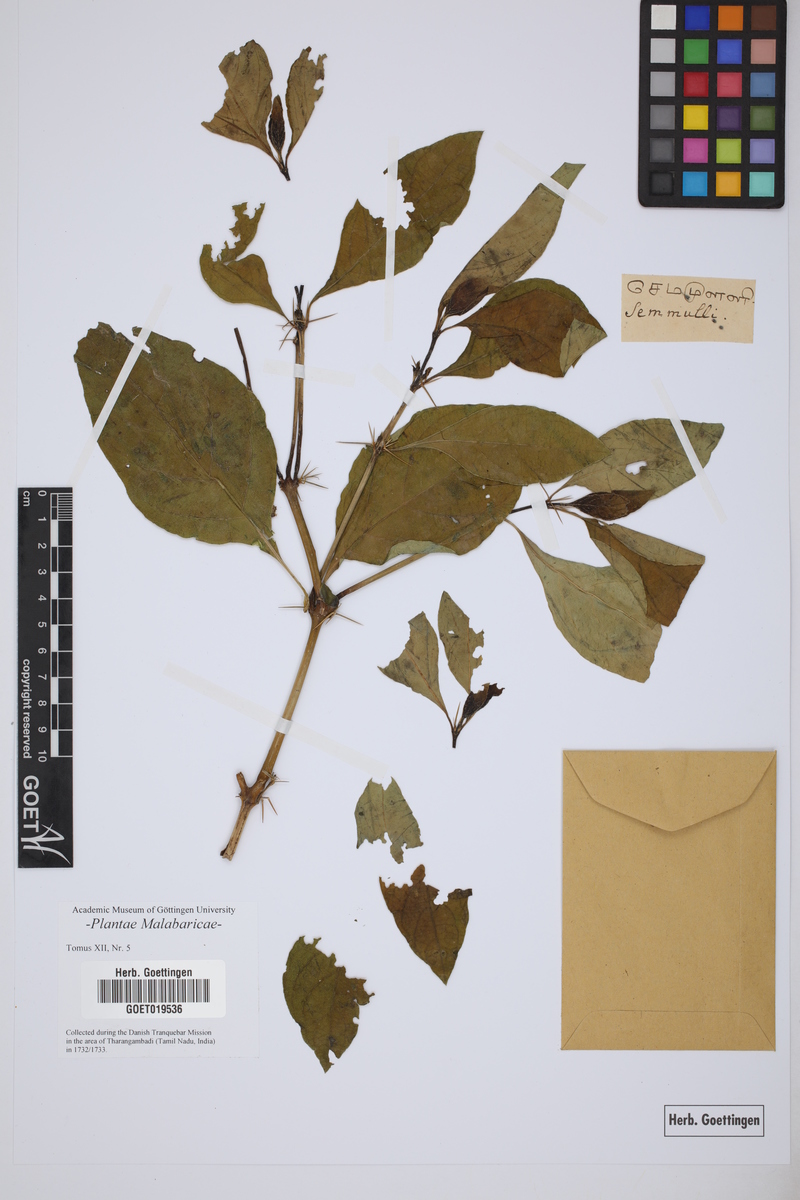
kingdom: Plantae
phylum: Tracheophyta
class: Magnoliopsida
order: Lamiales
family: Acanthaceae
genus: Barleria
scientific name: Barleria prionitis
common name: Barleria
